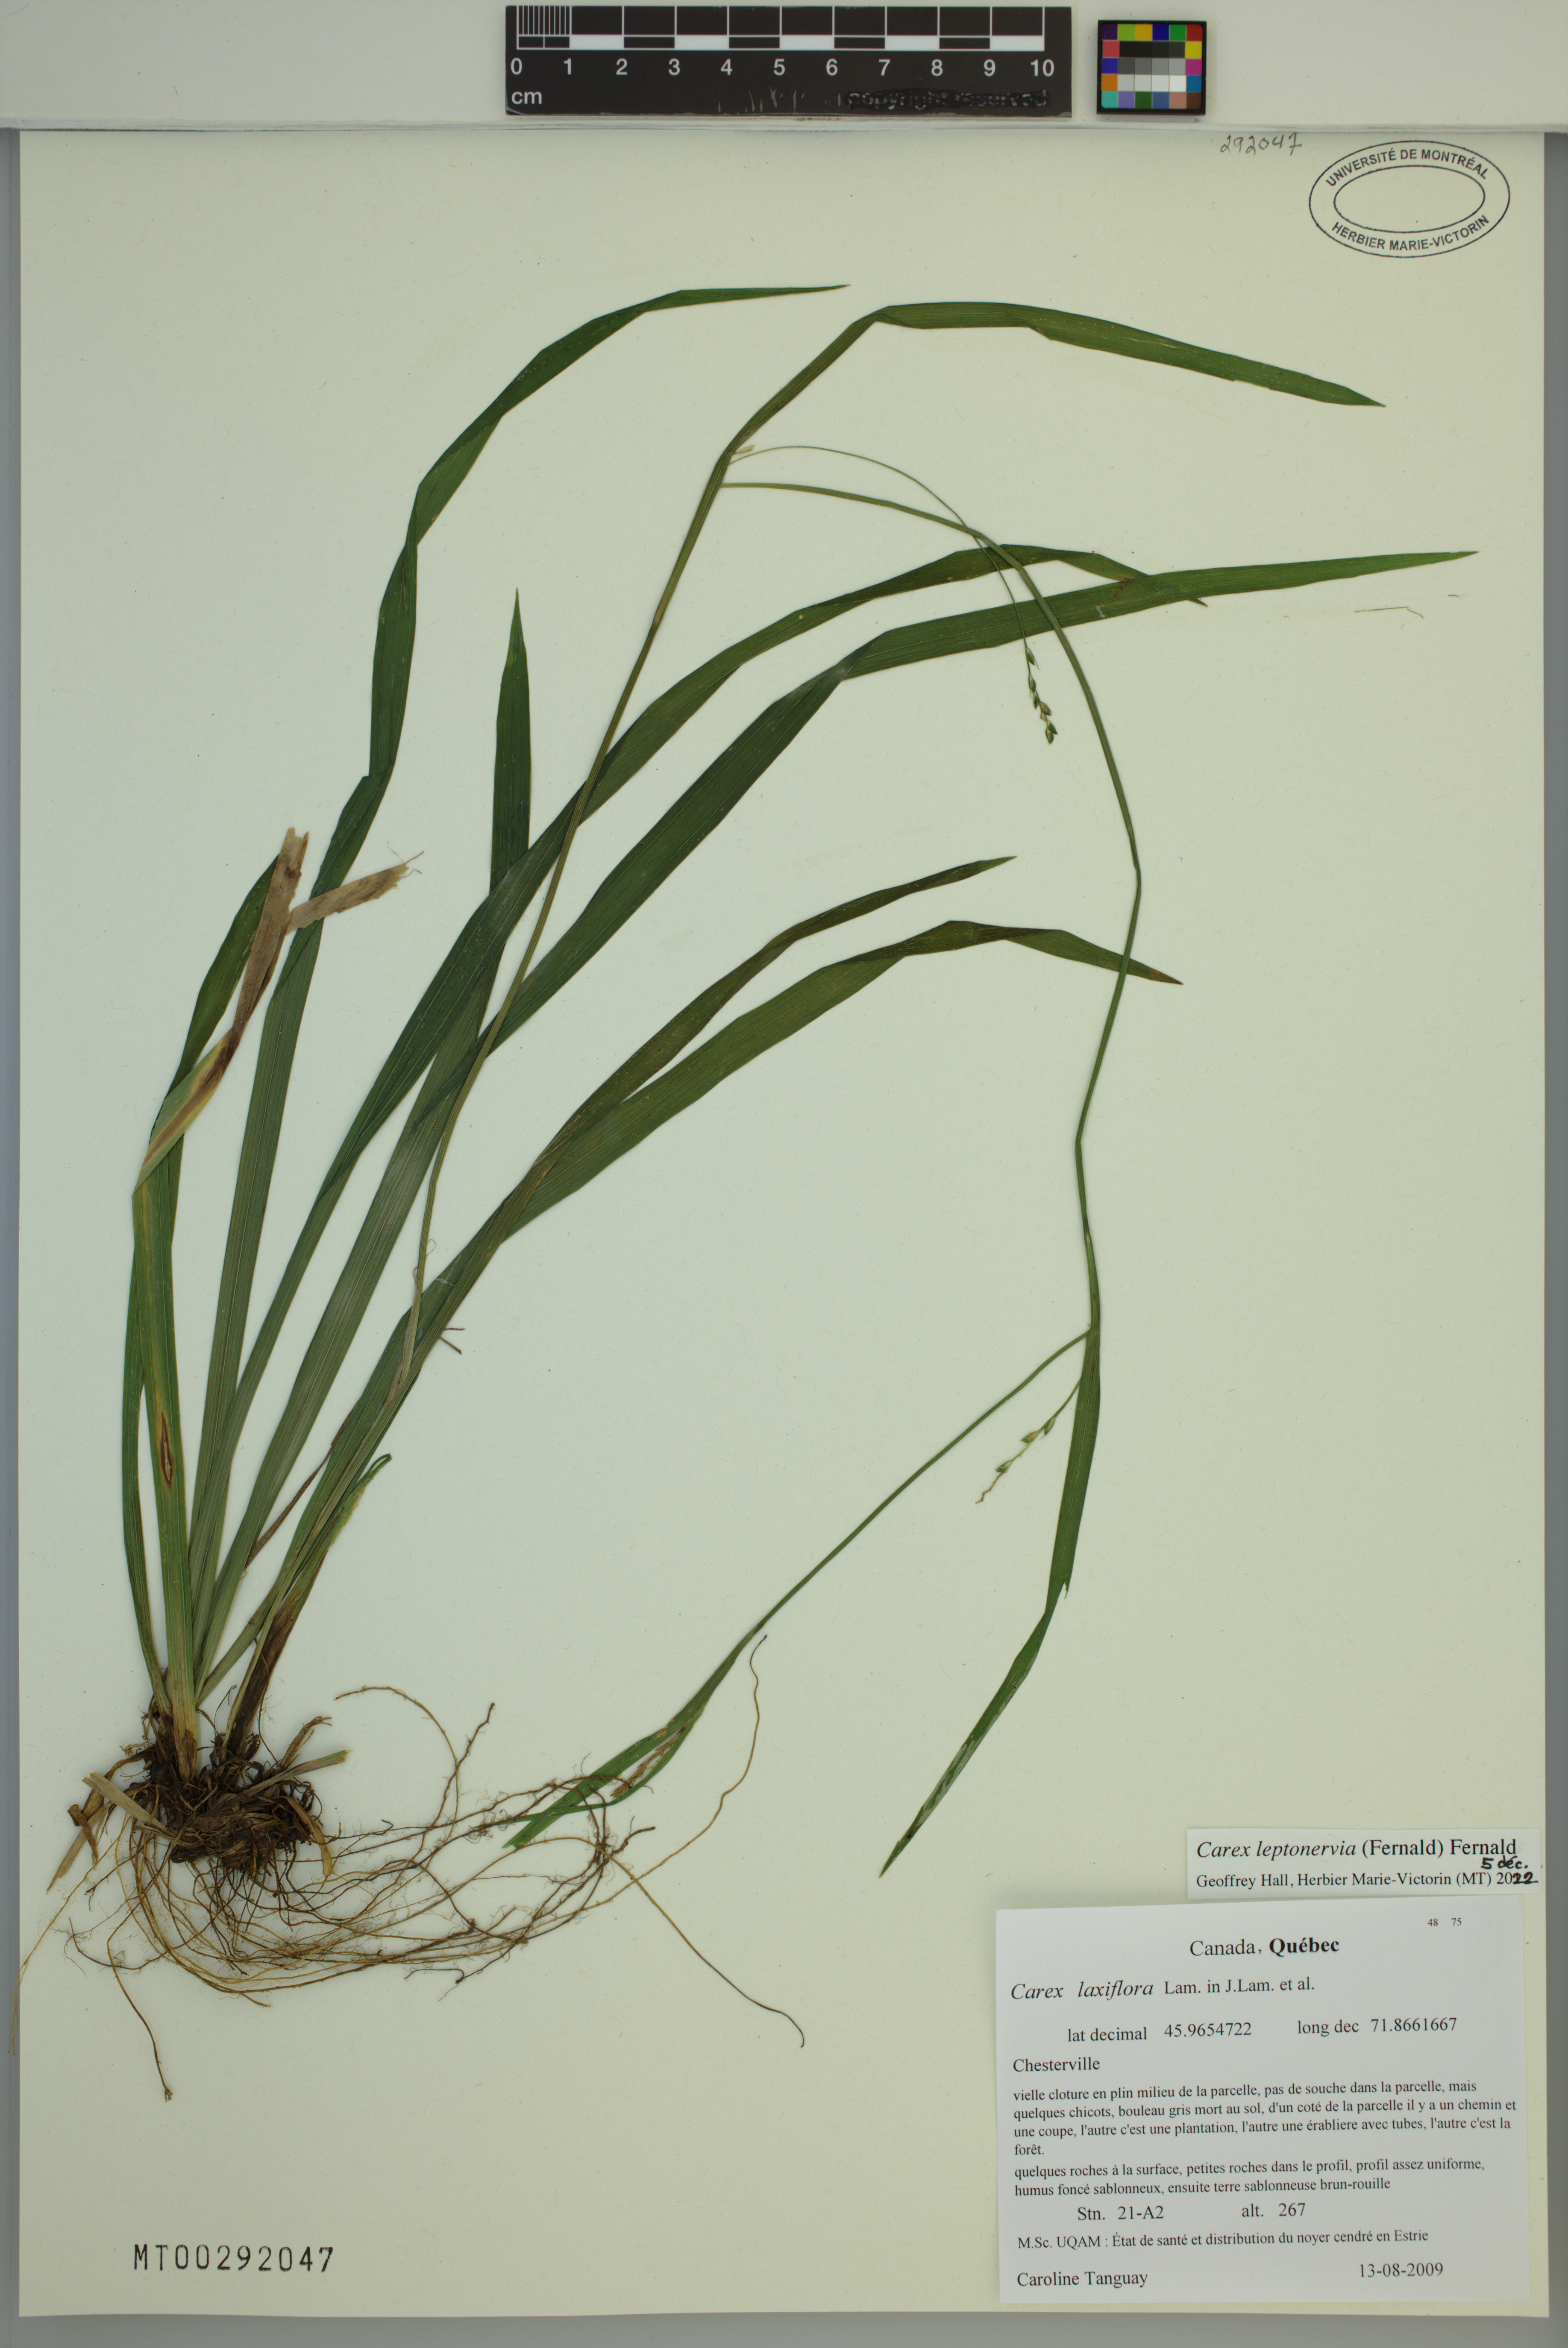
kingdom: Plantae
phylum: Tracheophyta
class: Liliopsida
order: Poales
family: Cyperaceae
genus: Carex
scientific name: Carex leptonervia
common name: Few-nerved wood sedge
